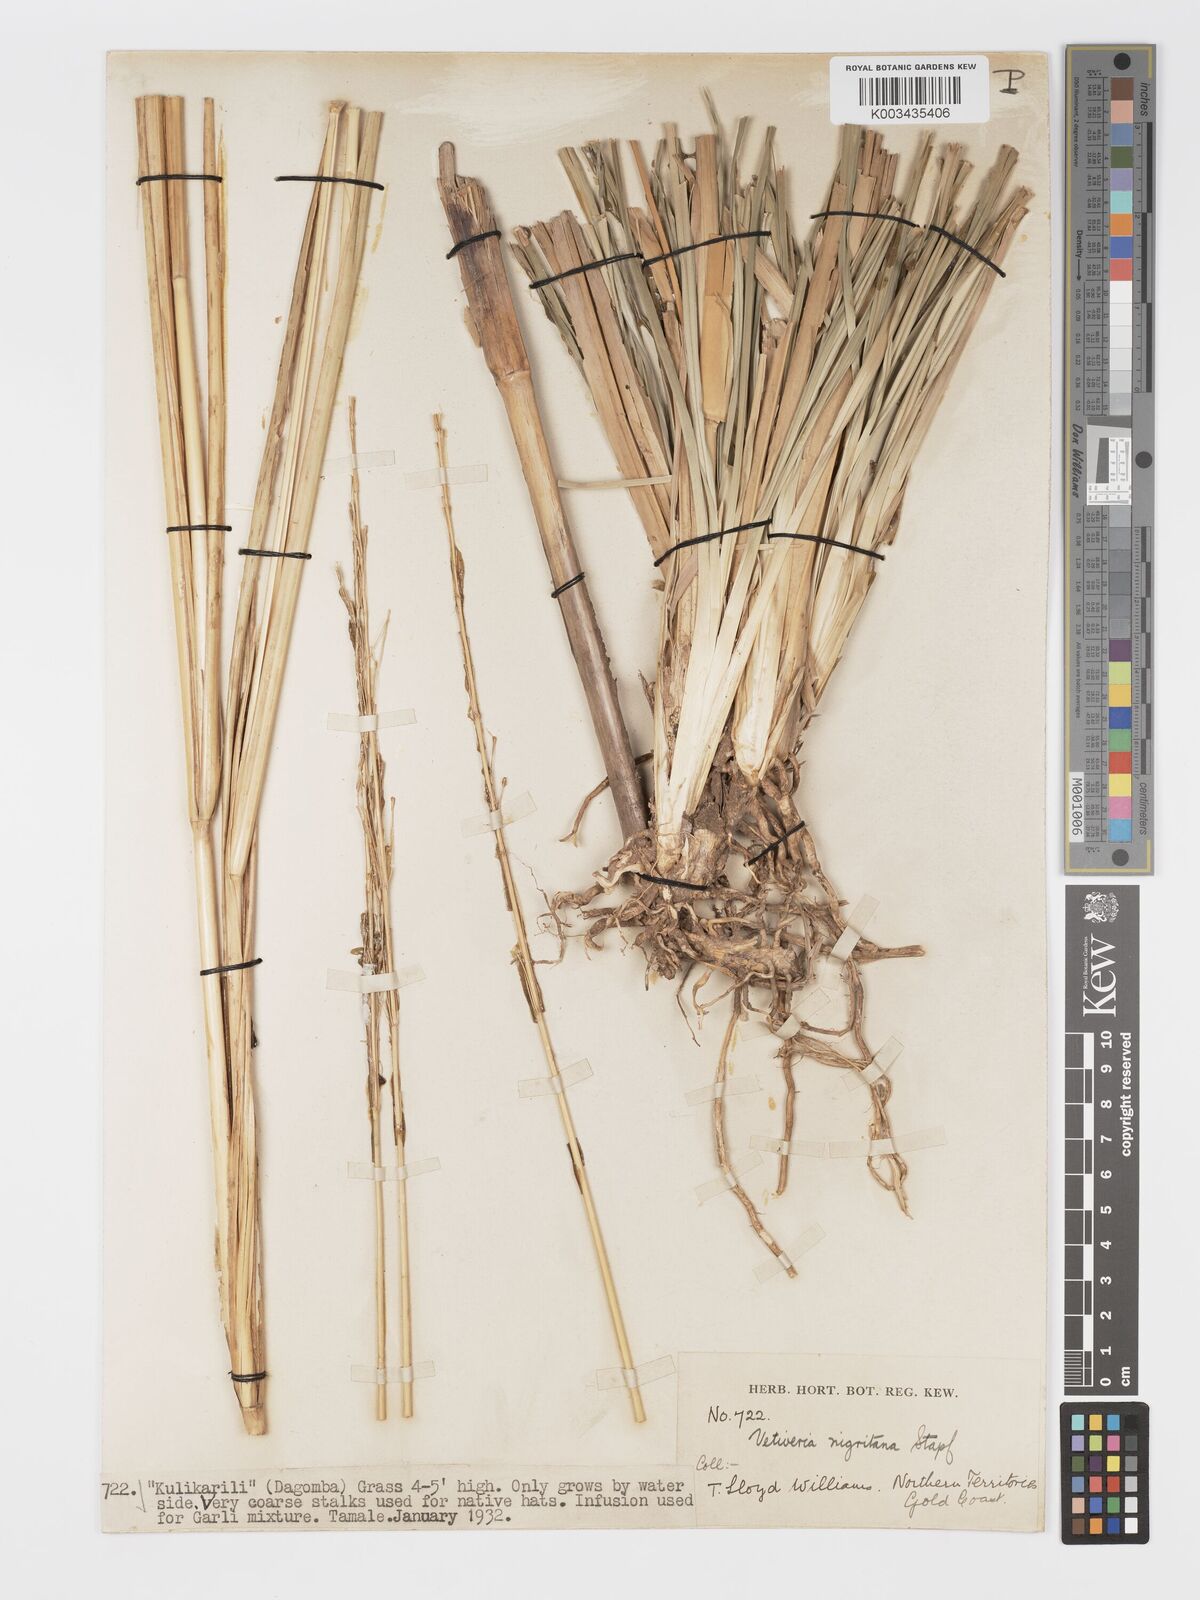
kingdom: Plantae
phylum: Tracheophyta
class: Liliopsida
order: Poales
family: Poaceae
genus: Chrysopogon
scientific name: Chrysopogon nigritanus
